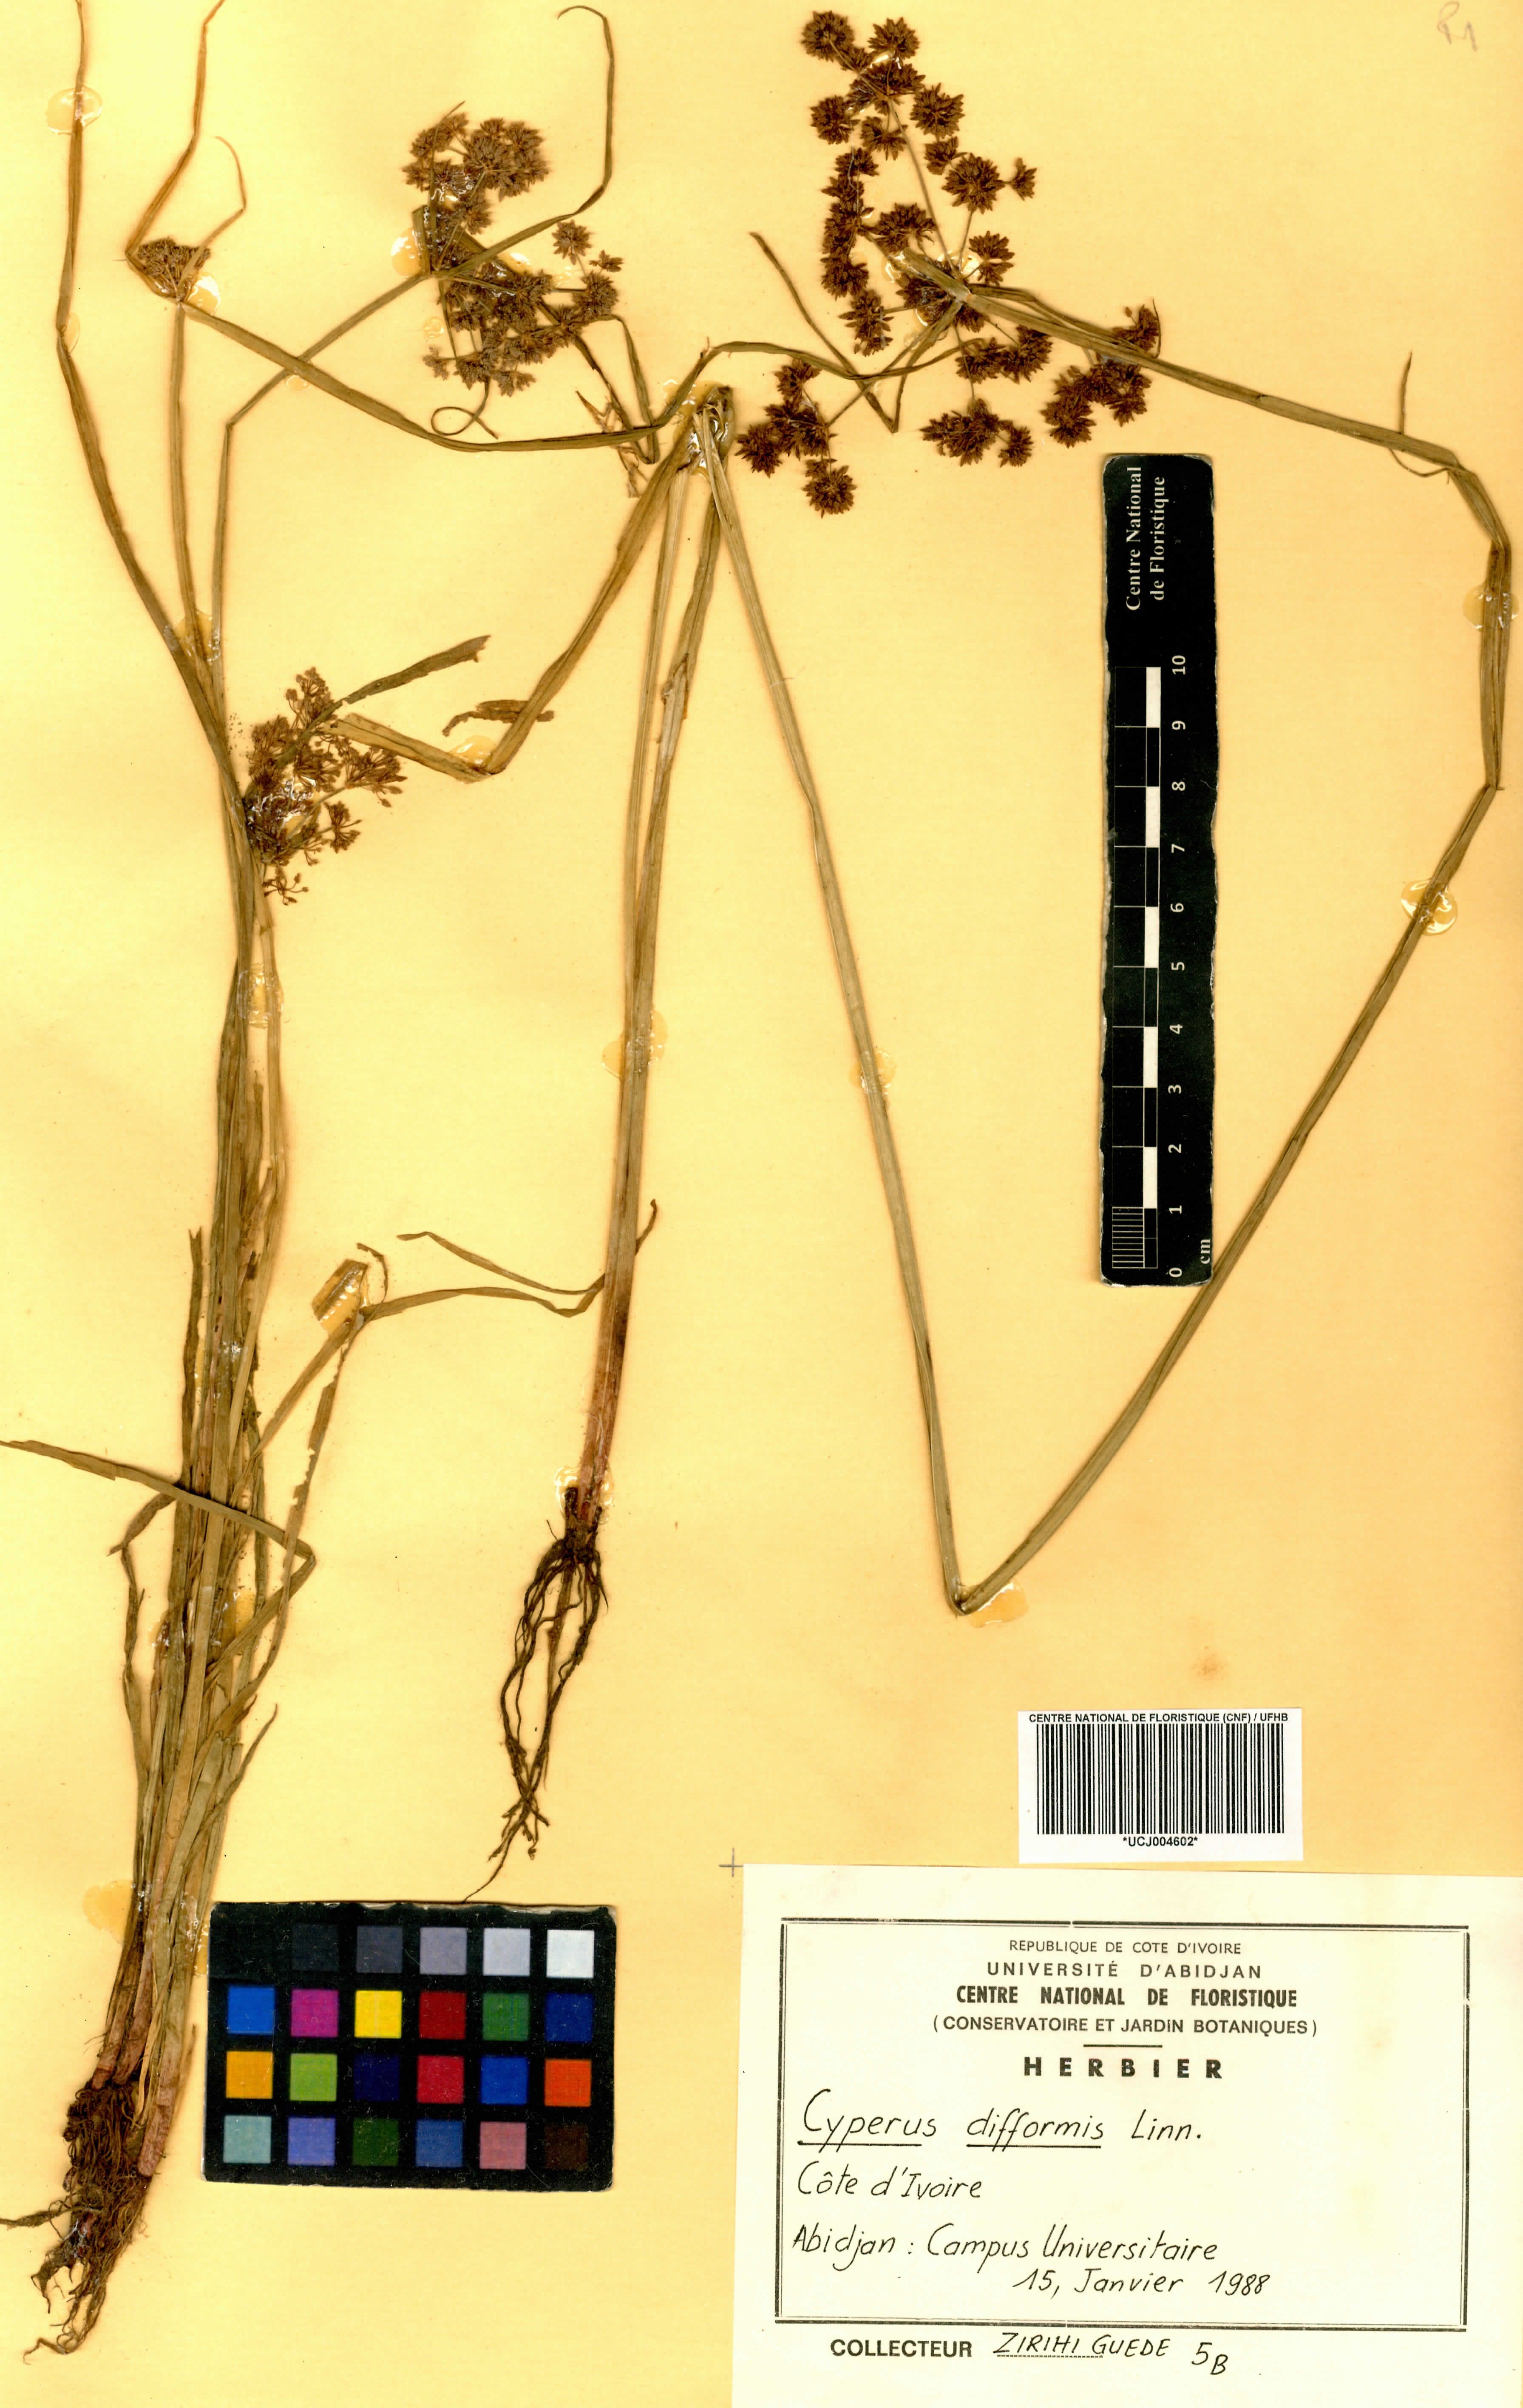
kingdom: Plantae
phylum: Tracheophyta
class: Liliopsida
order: Poales
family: Cyperaceae
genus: Cyperus
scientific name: Cyperus difformis
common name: Variable flatsedge
